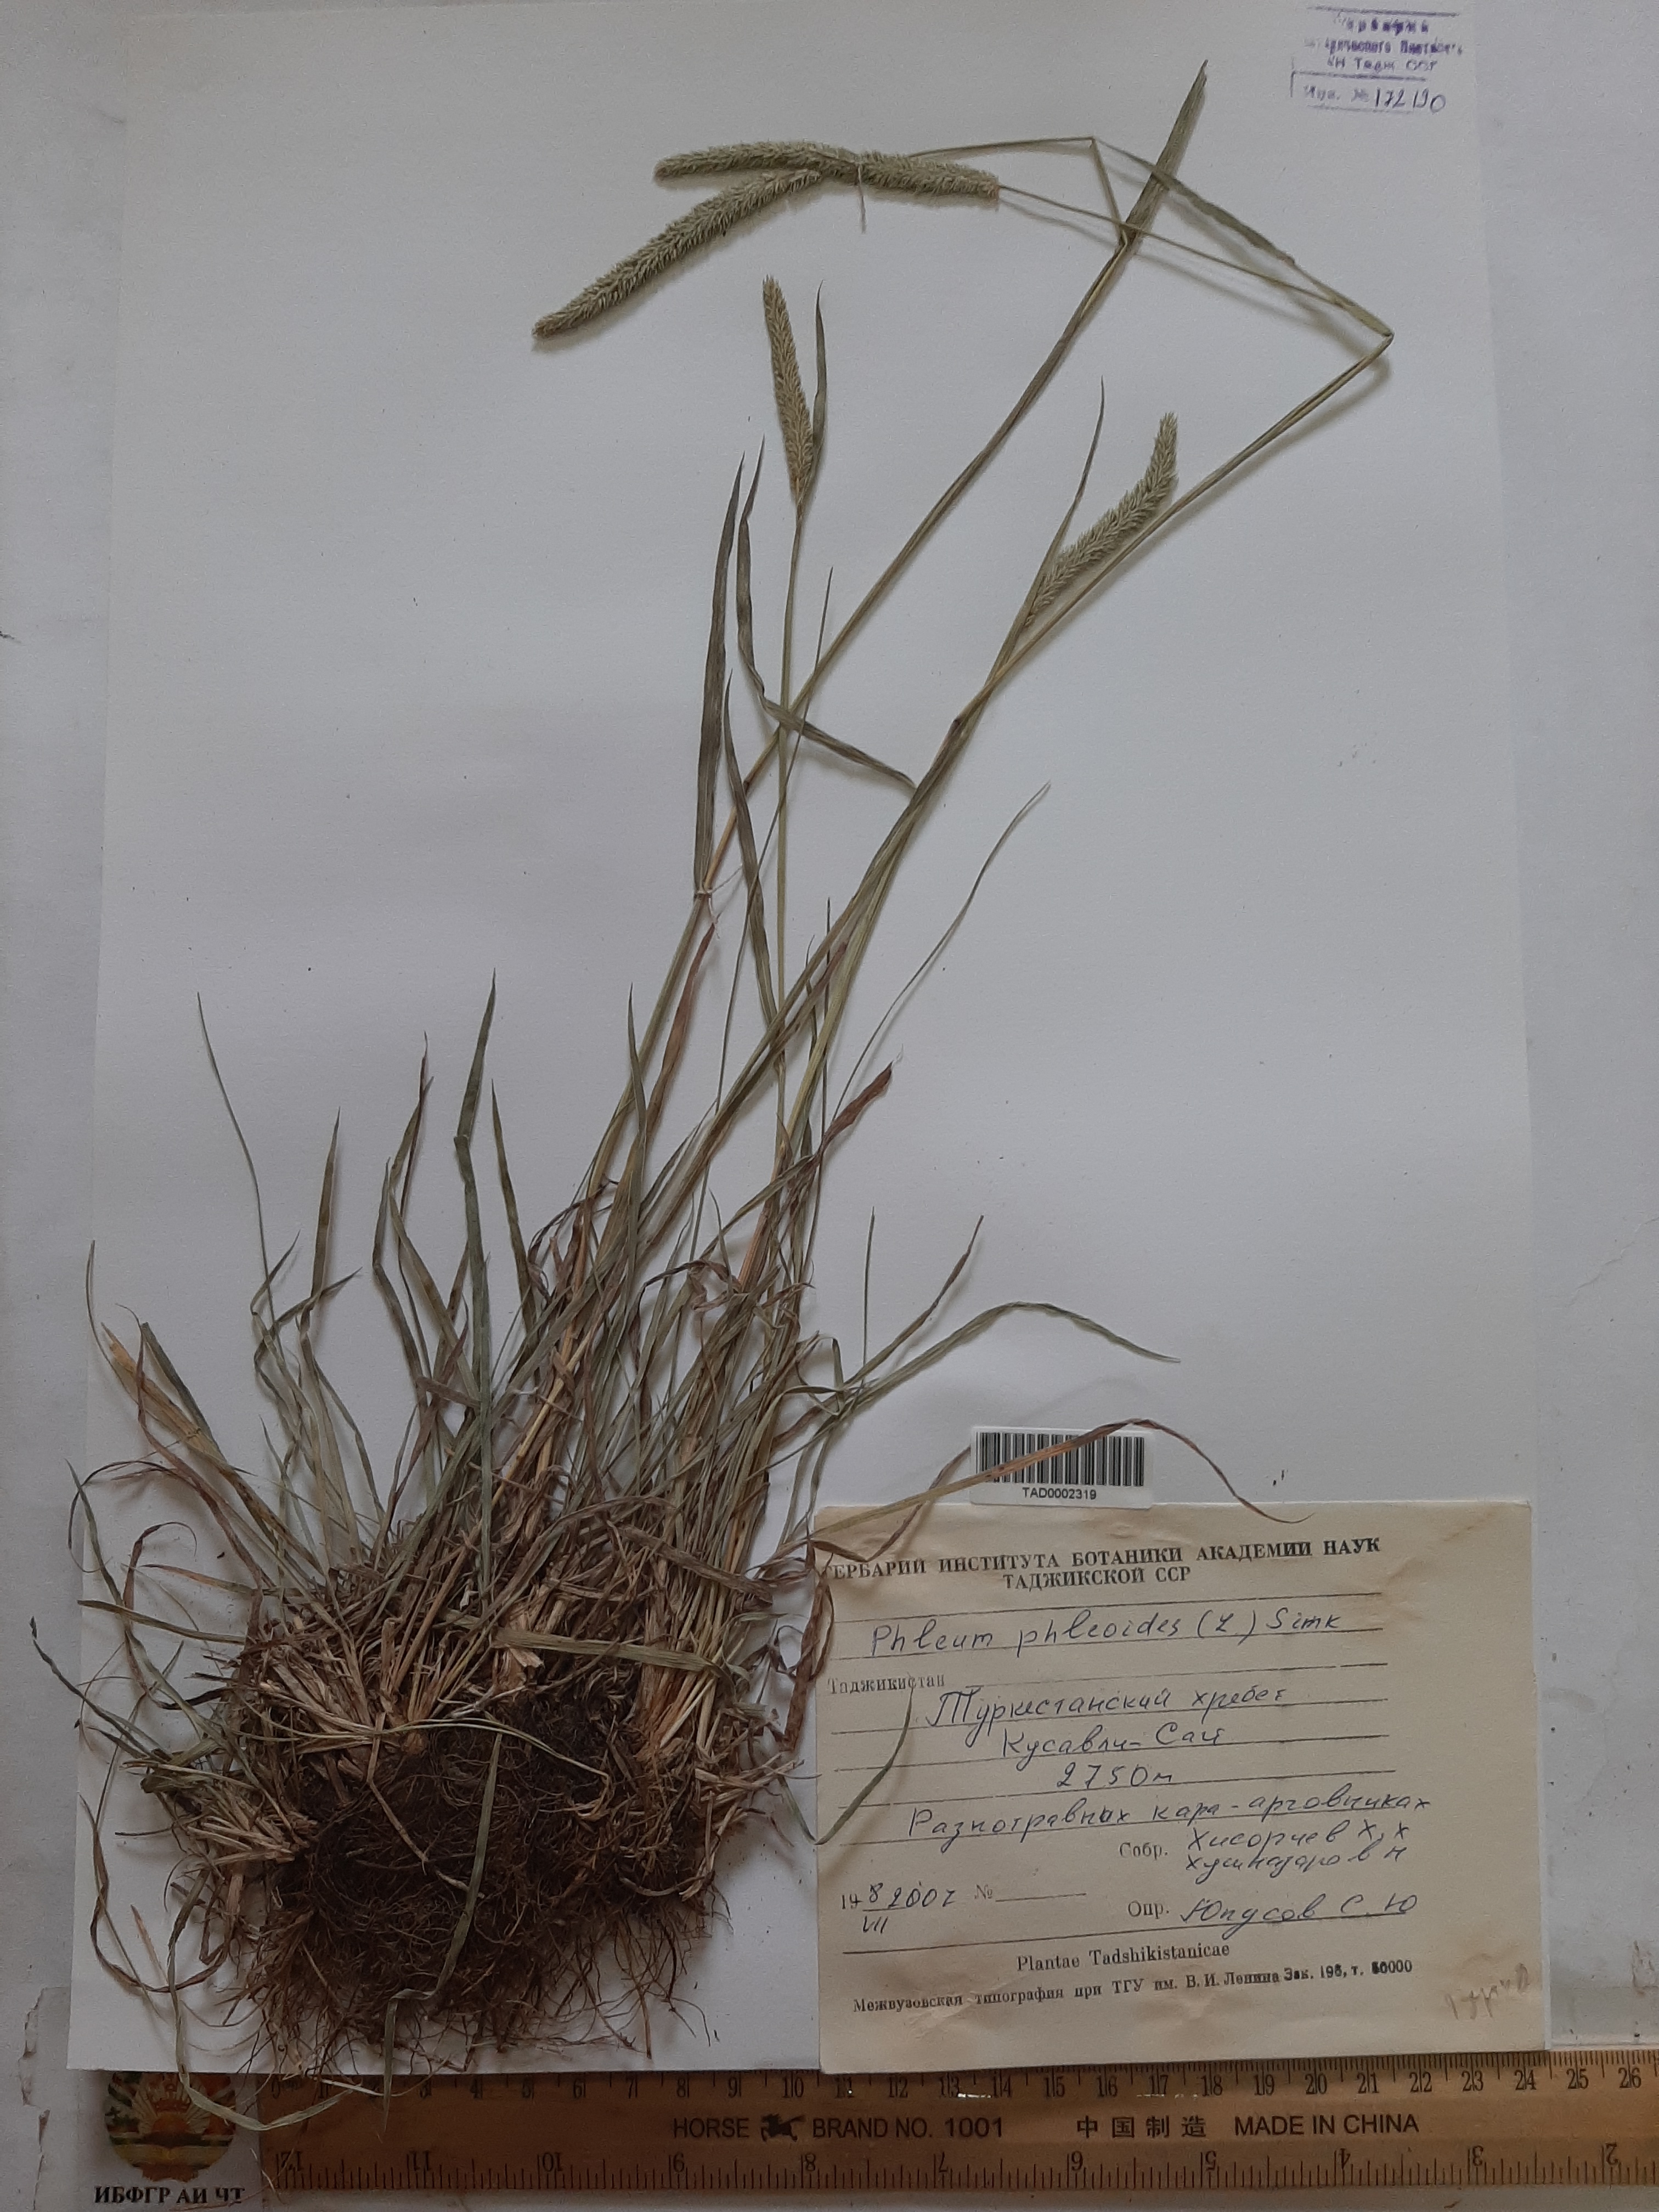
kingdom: Plantae
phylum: Tracheophyta
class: Liliopsida
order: Poales
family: Poaceae
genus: Phleum
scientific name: Phleum phleoides
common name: Purple-stem cat's-tail
